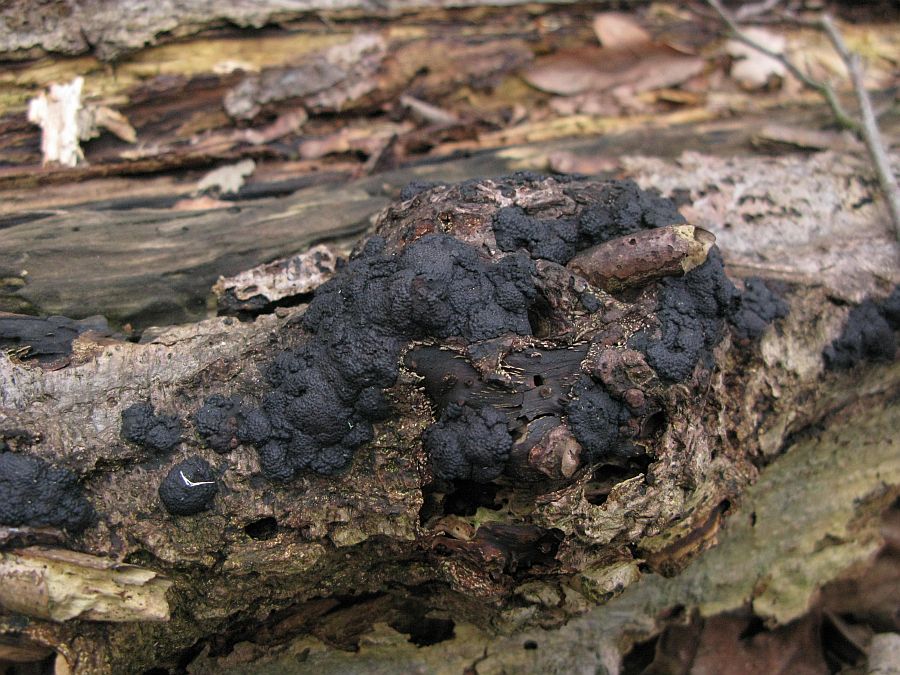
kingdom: Fungi
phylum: Ascomycota
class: Sordariomycetes
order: Xylariales
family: Hypoxylaceae
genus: Jackrogersella
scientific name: Jackrogersella cohaerens
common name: sammenflydende kulbær
